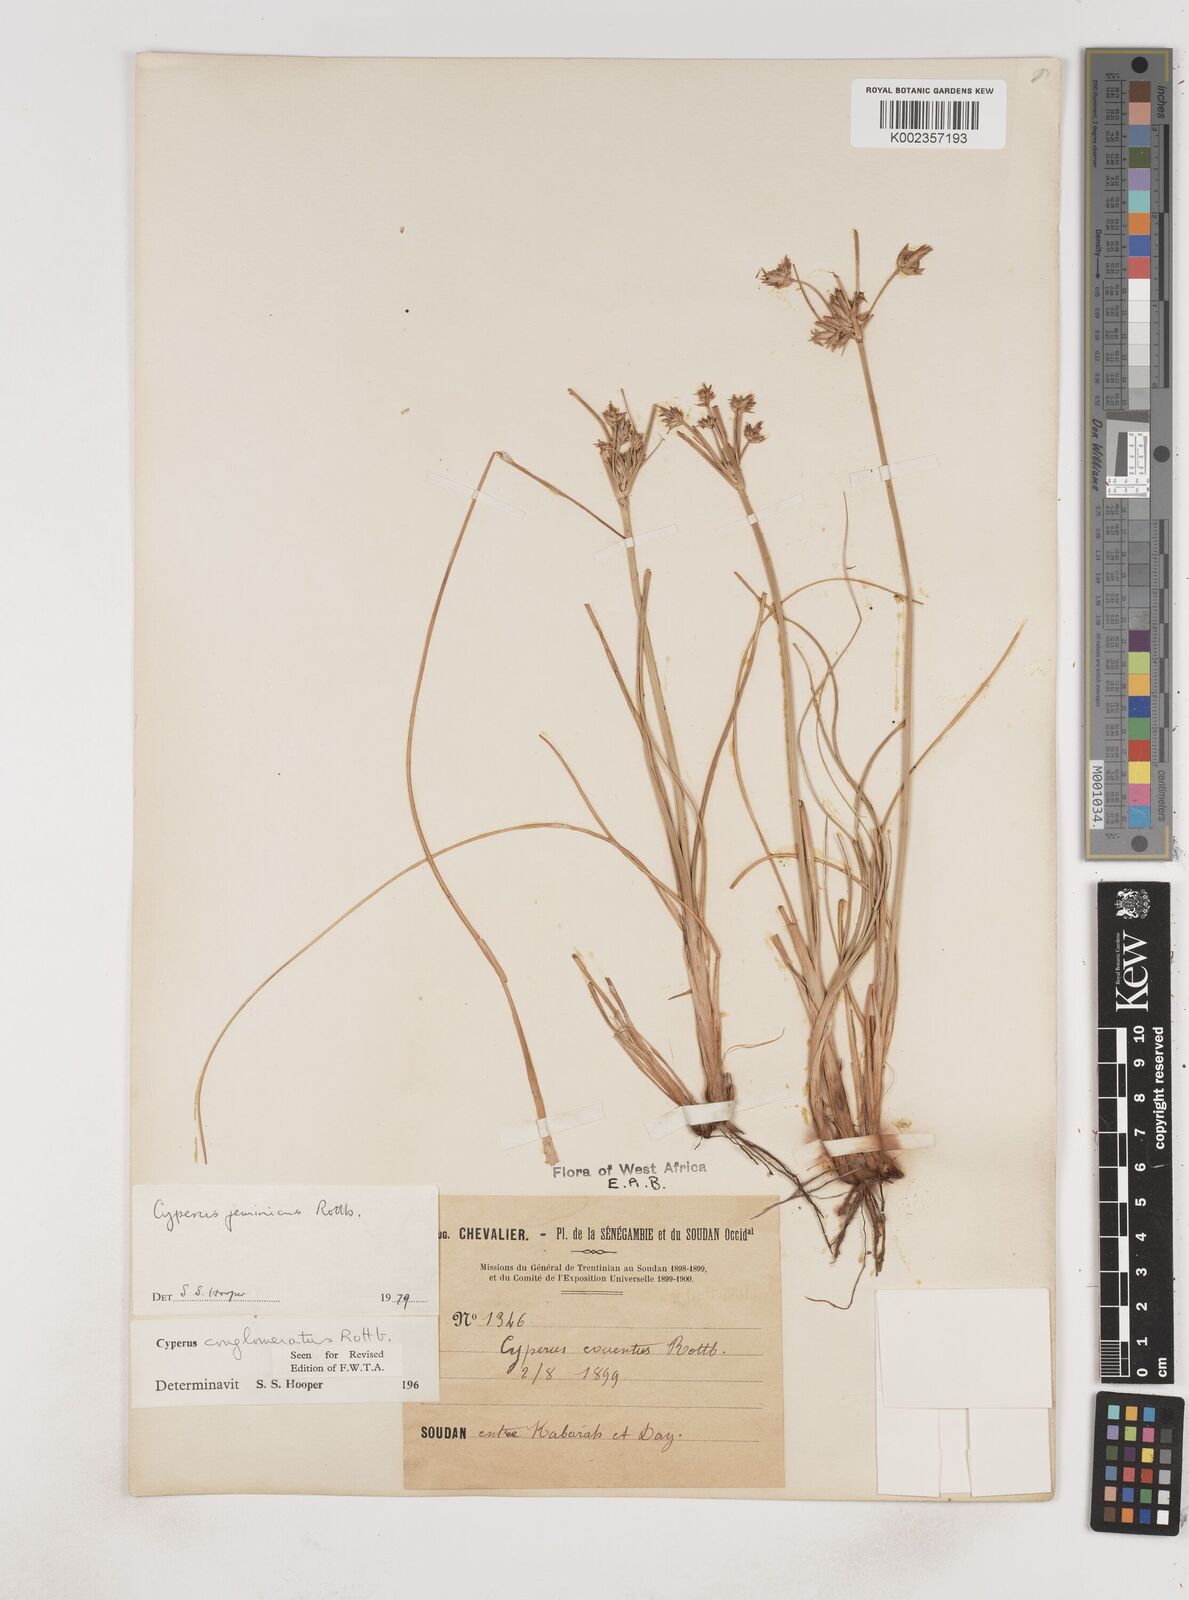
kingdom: Plantae
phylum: Tracheophyta
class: Liliopsida
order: Poales
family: Cyperaceae
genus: Cyperus
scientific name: Cyperus jeminicus
